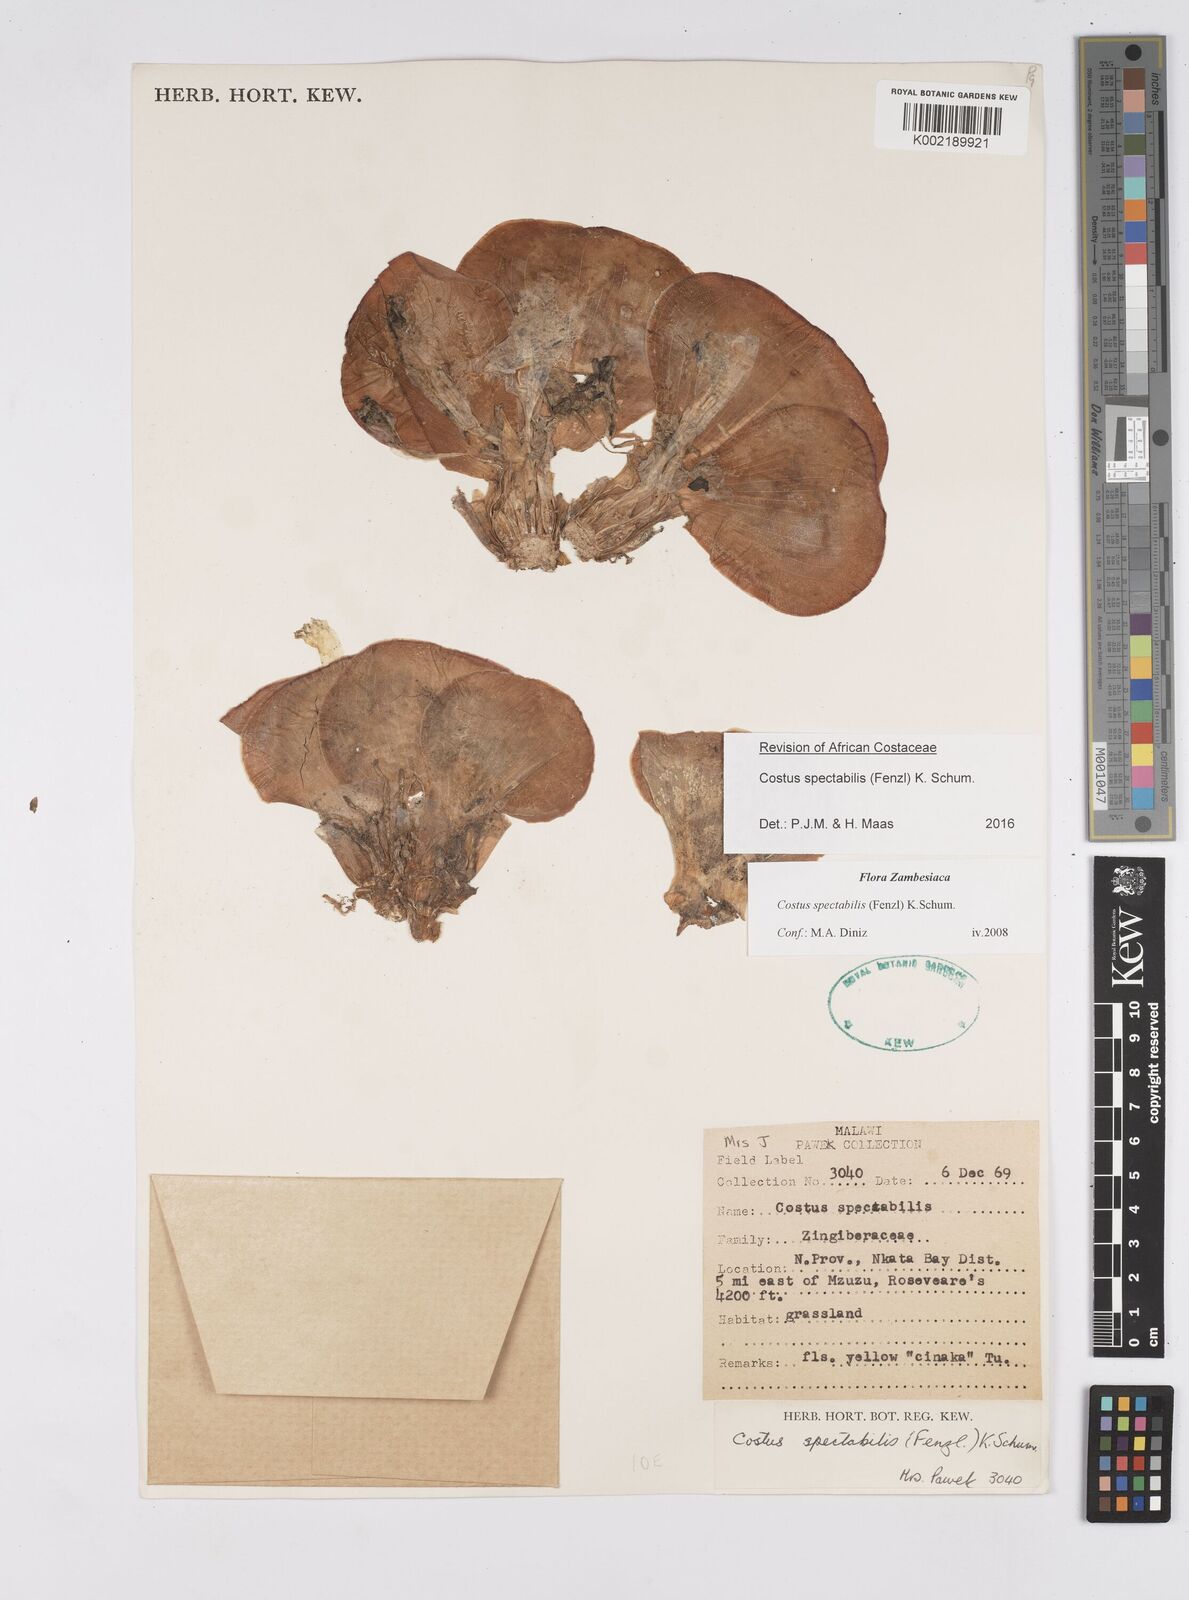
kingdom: Plantae
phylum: Tracheophyta
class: Liliopsida
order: Zingiberales
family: Costaceae
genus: Costus
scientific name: Costus spectabilis
